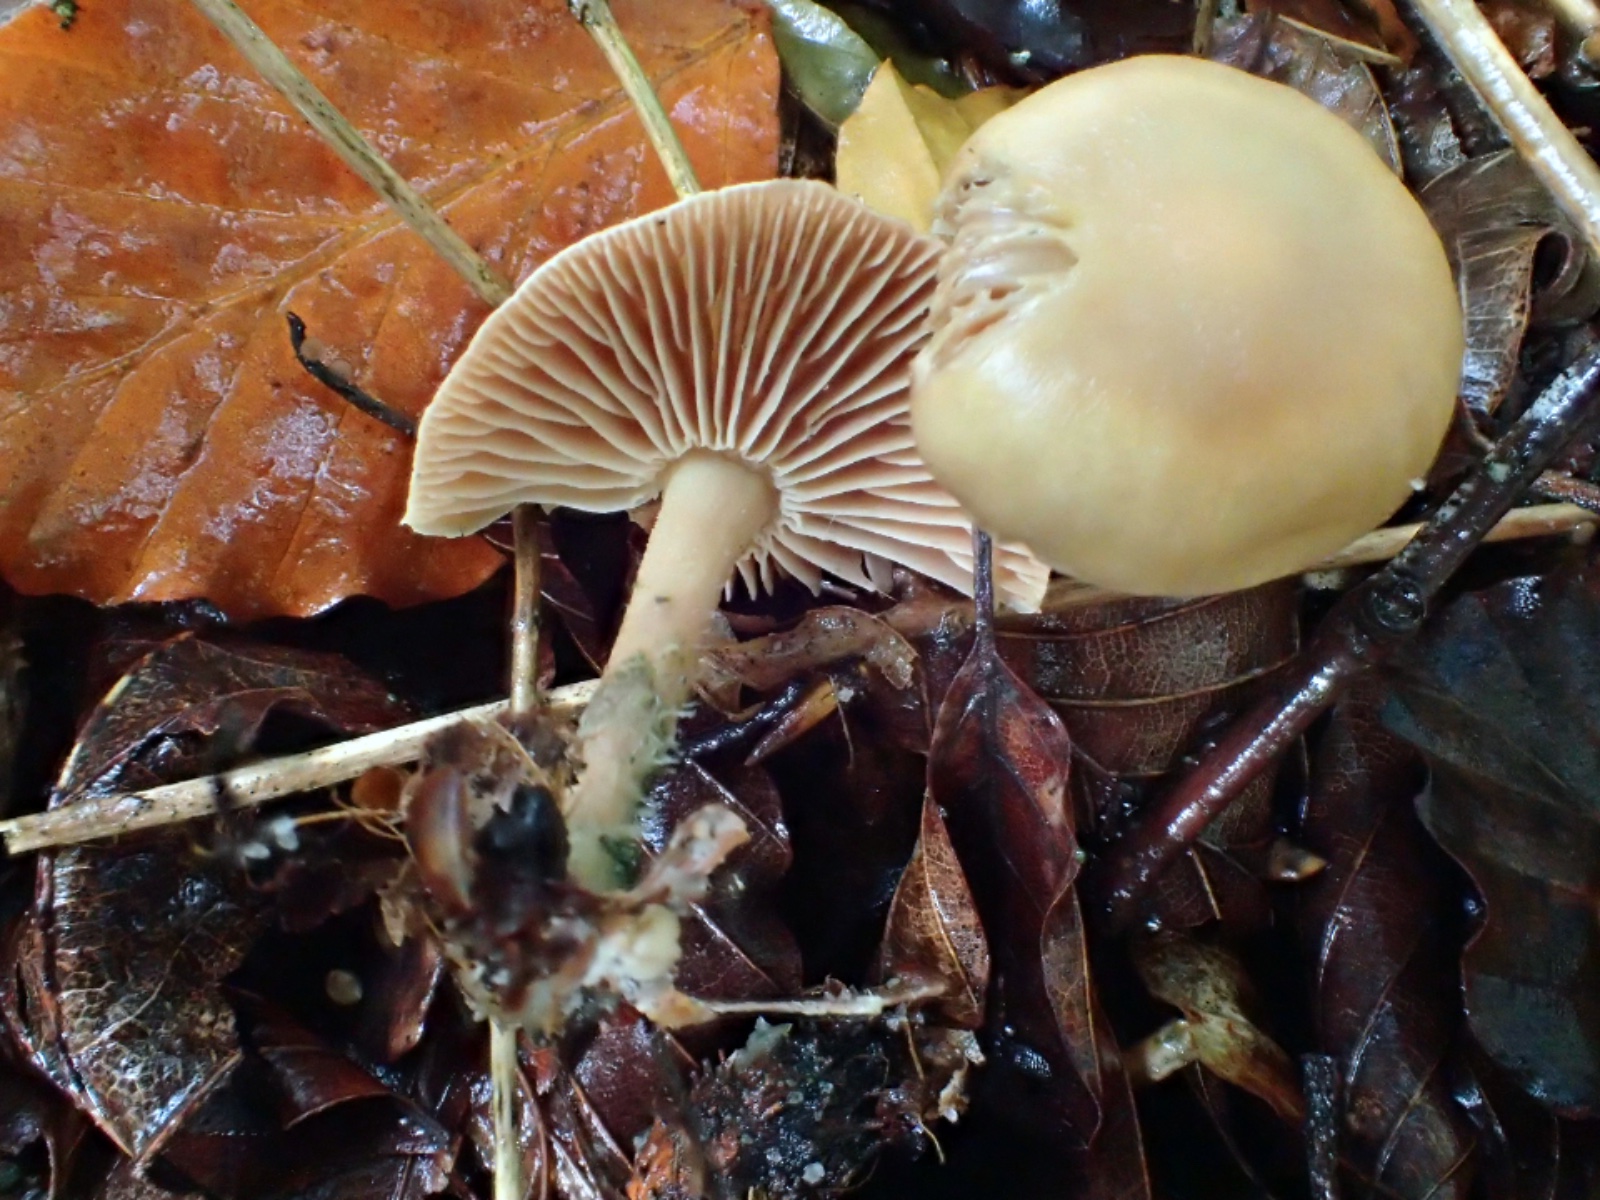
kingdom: Fungi
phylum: Basidiomycota
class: Agaricomycetes
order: Agaricales
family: Omphalotaceae
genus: Collybiopsis
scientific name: Collybiopsis peronata
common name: bestøvlet fladhat
